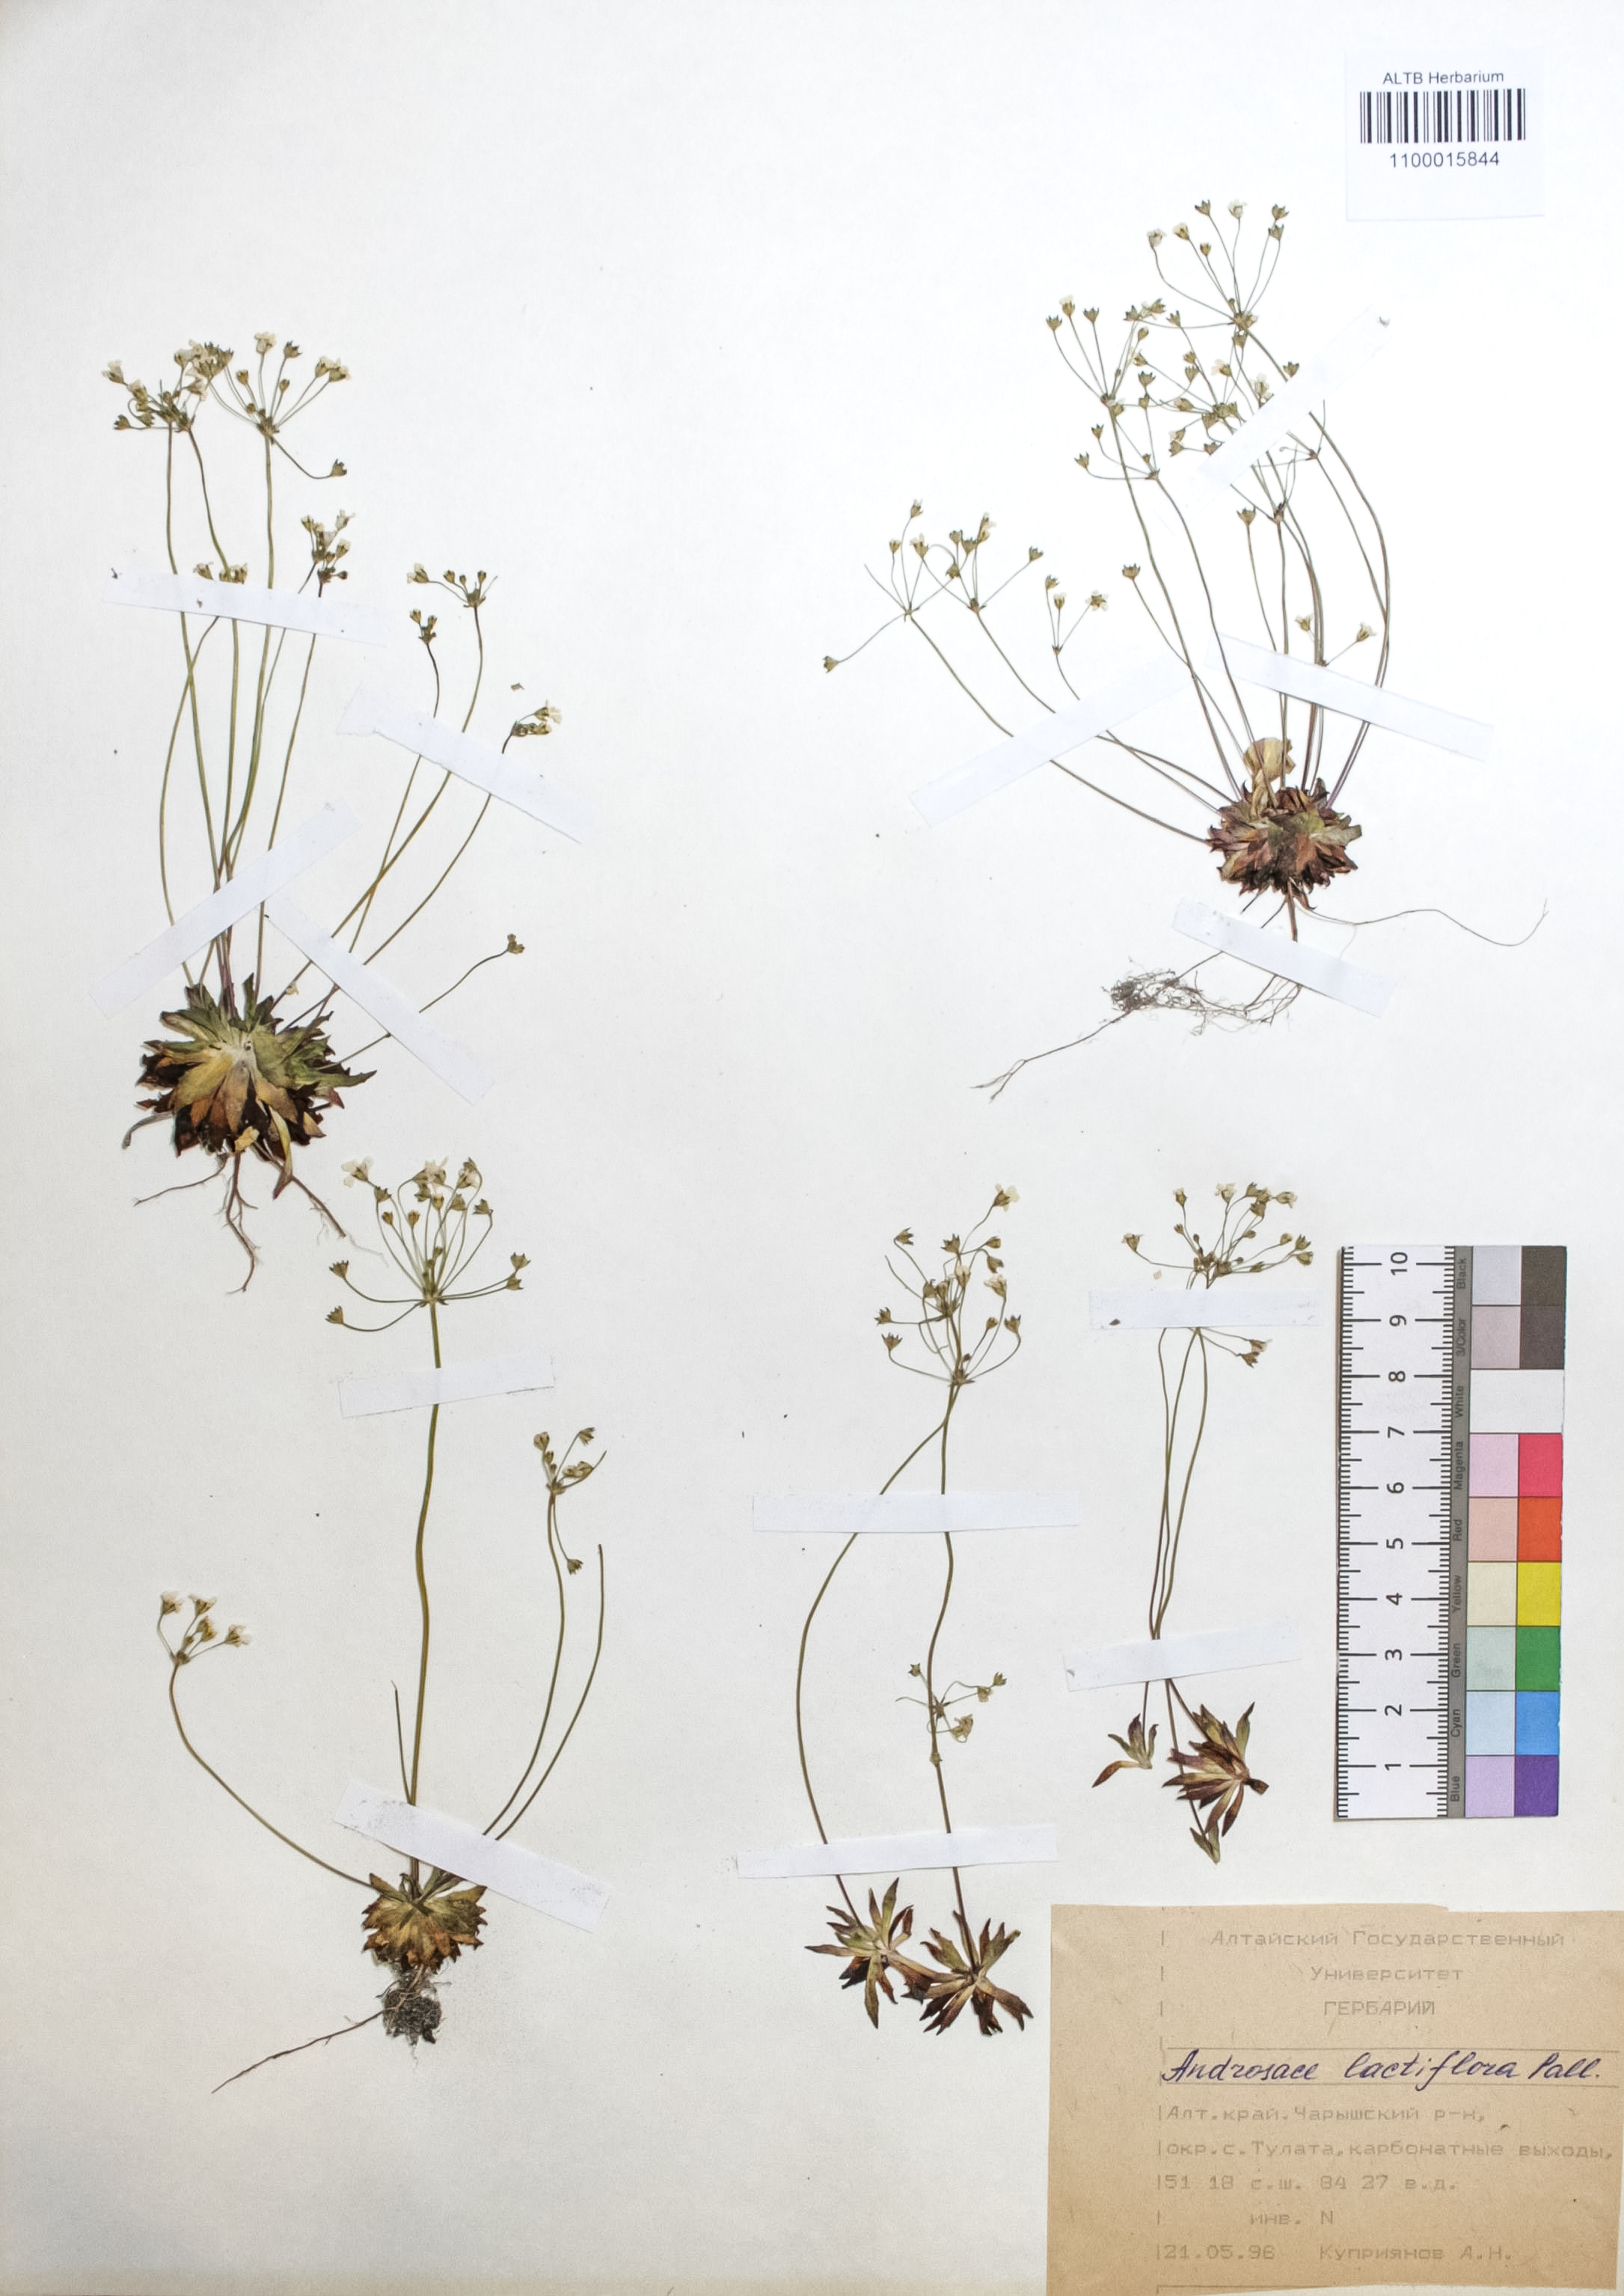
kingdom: Plantae
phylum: Tracheophyta
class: Magnoliopsida
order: Ericales
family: Primulaceae
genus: Androsace
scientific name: Androsace lactiflora
